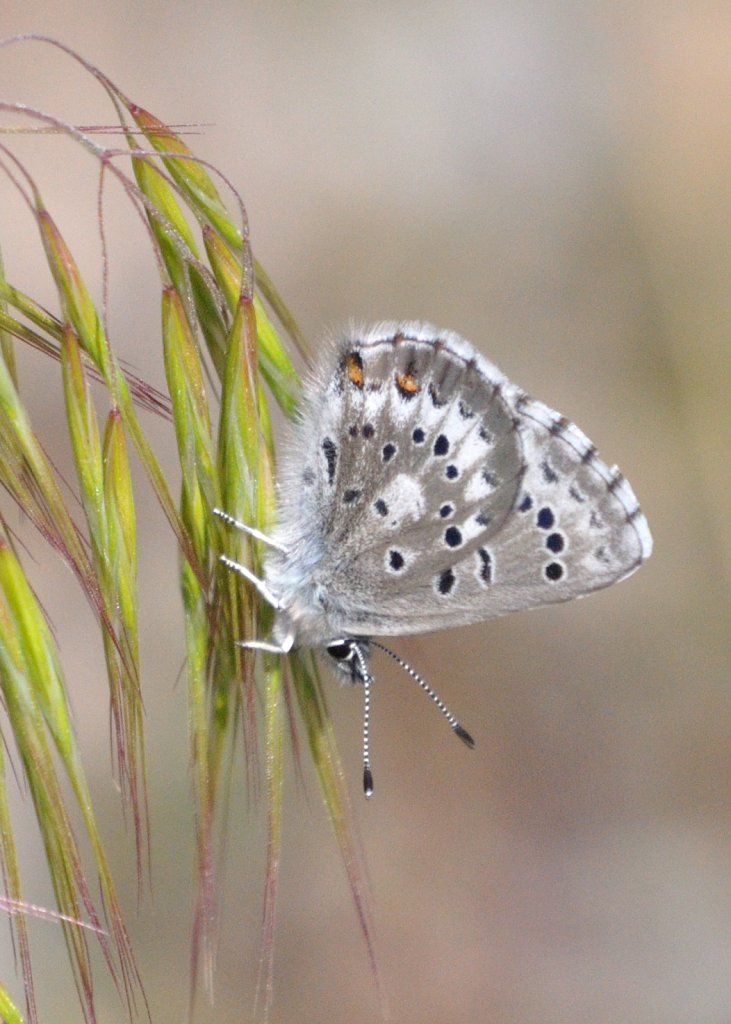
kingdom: Animalia
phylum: Arthropoda
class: Insecta
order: Lepidoptera
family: Lycaenidae
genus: Glaucopsyche
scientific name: Glaucopsyche piasus
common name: Arrowhead Blue
